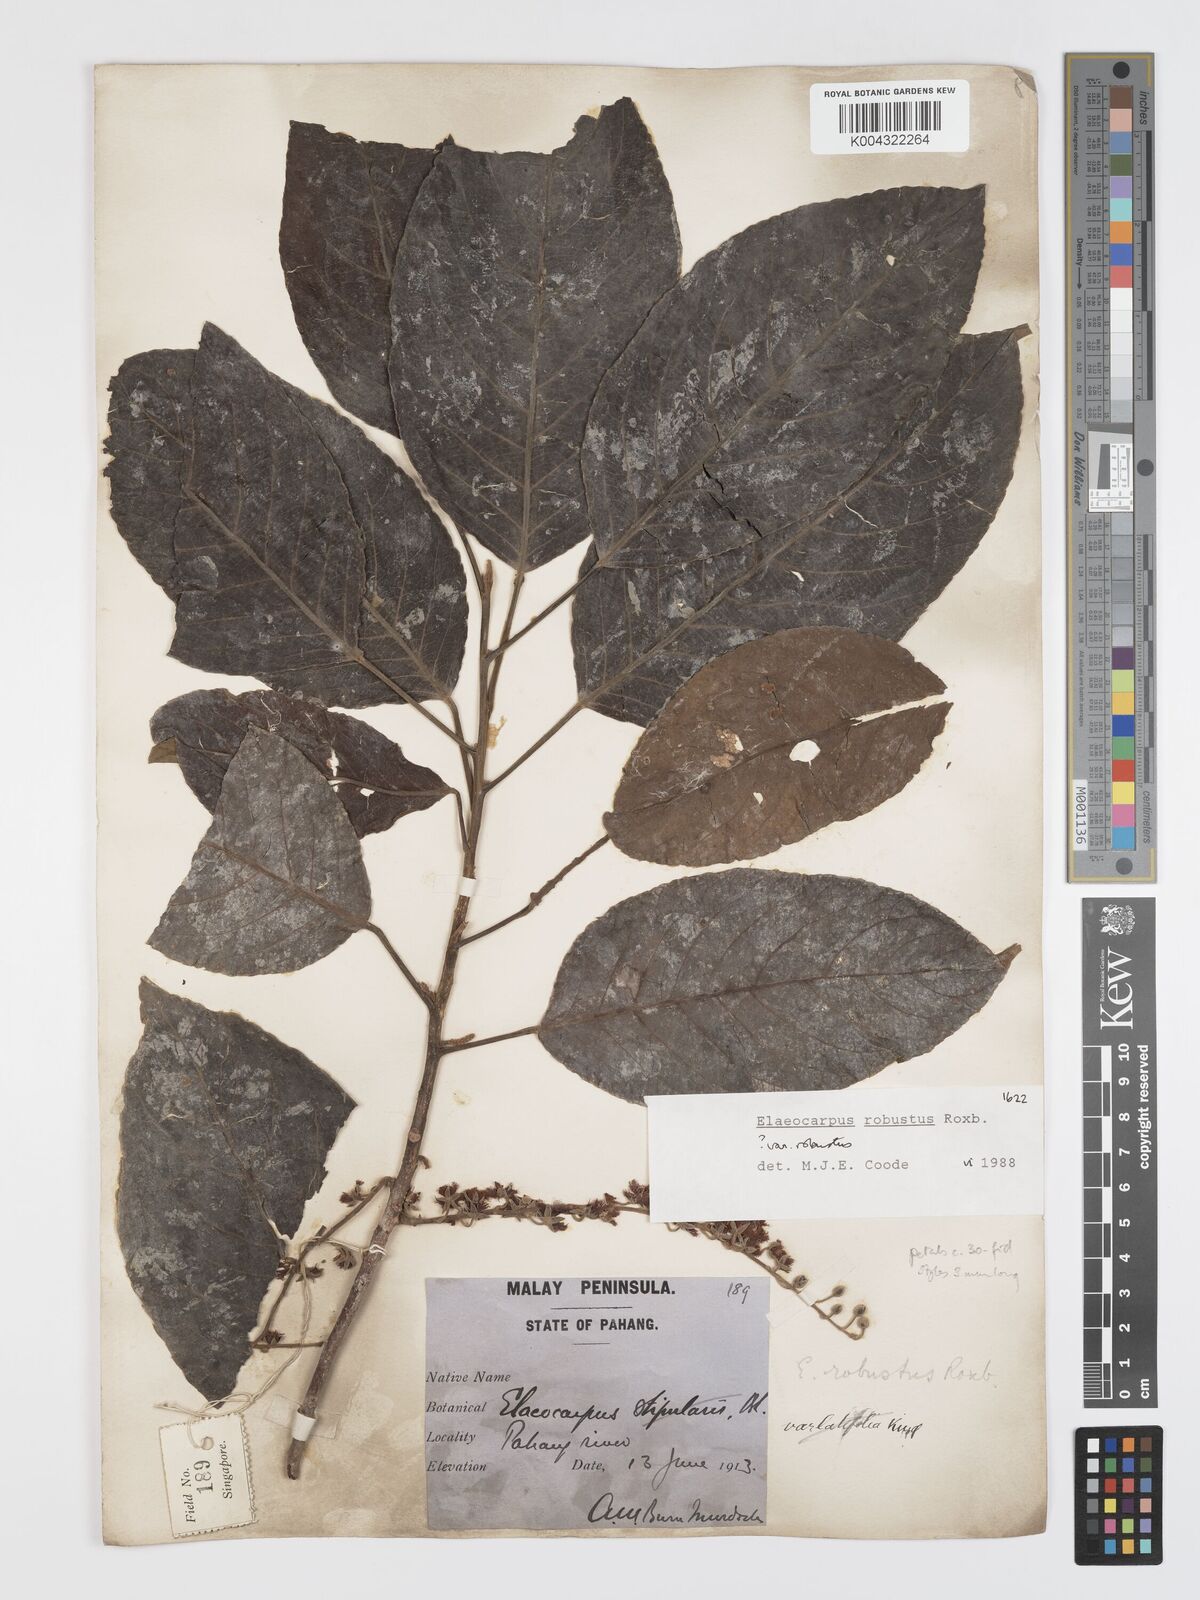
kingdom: Plantae
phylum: Tracheophyta
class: Magnoliopsida
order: Oxalidales
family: Elaeocarpaceae
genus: Elaeocarpus
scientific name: Elaeocarpus robustus
